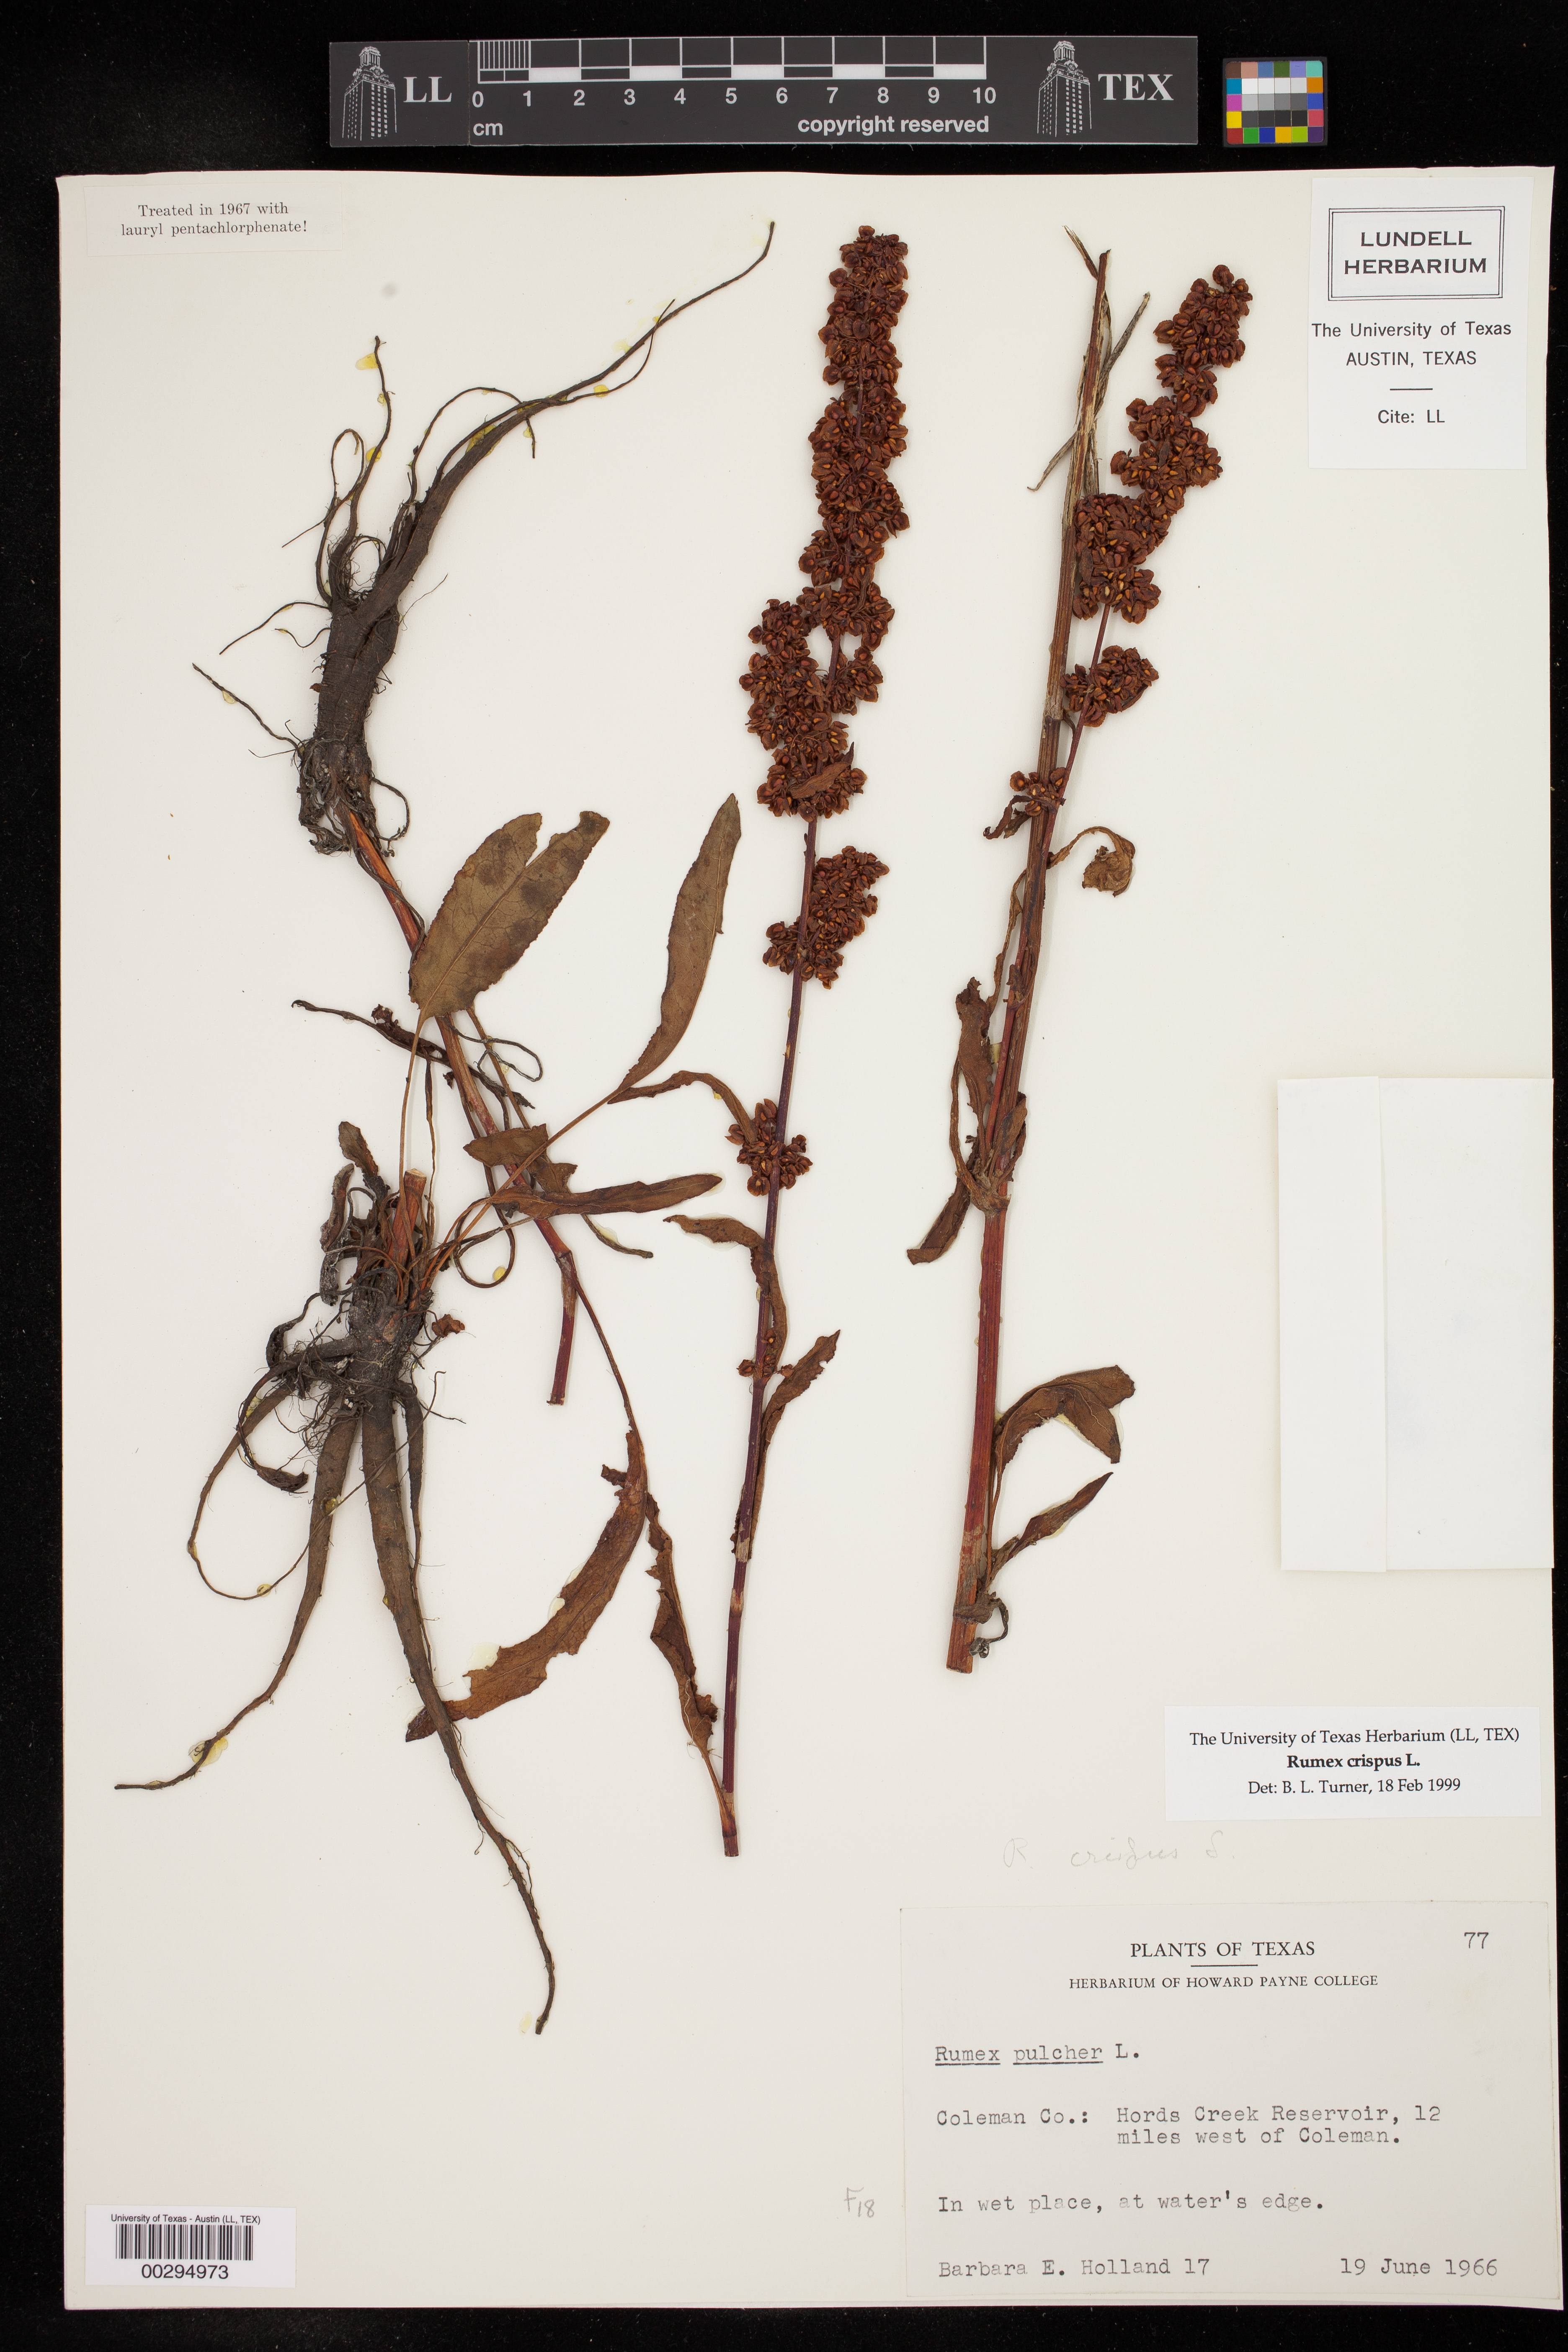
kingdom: Plantae
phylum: Tracheophyta
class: Magnoliopsida
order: Caryophyllales
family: Polygonaceae
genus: Rumex
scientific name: Rumex crispus
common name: Curled dock
